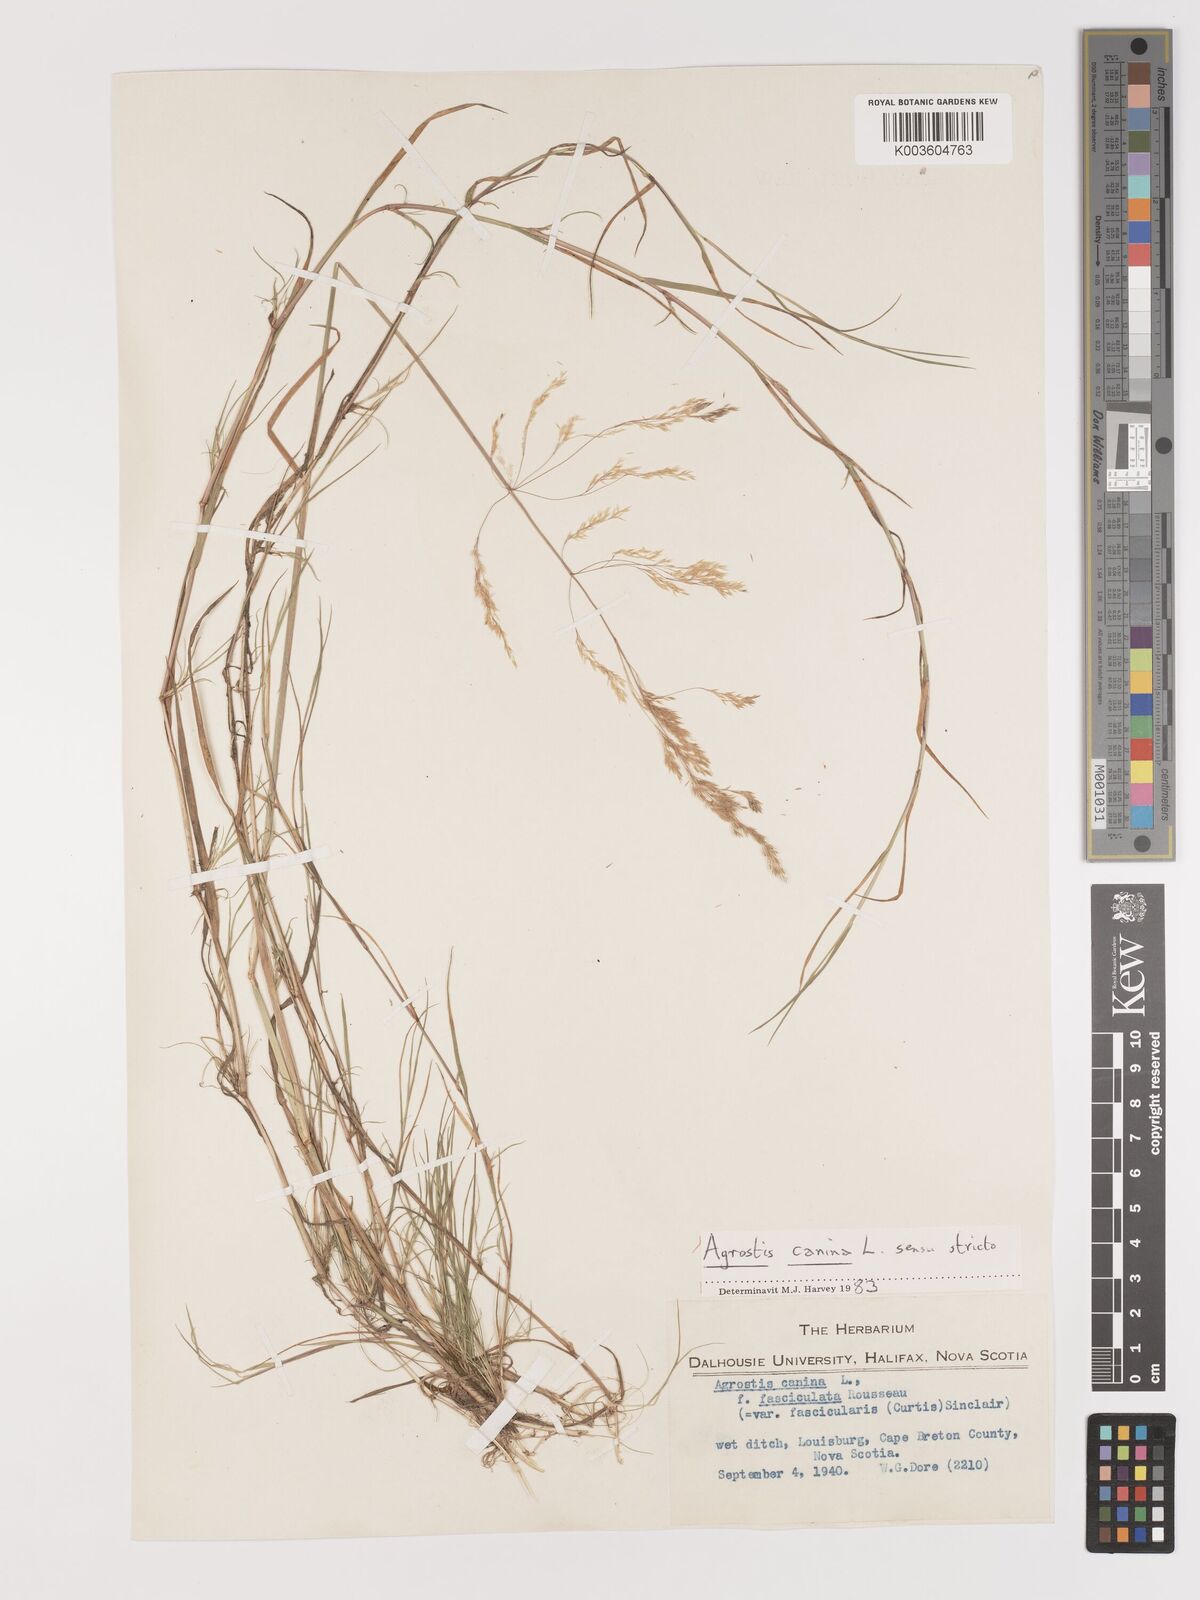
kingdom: Plantae
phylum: Tracheophyta
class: Liliopsida
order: Poales
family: Poaceae
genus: Agrostis
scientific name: Agrostis canina
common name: Velvet bent
